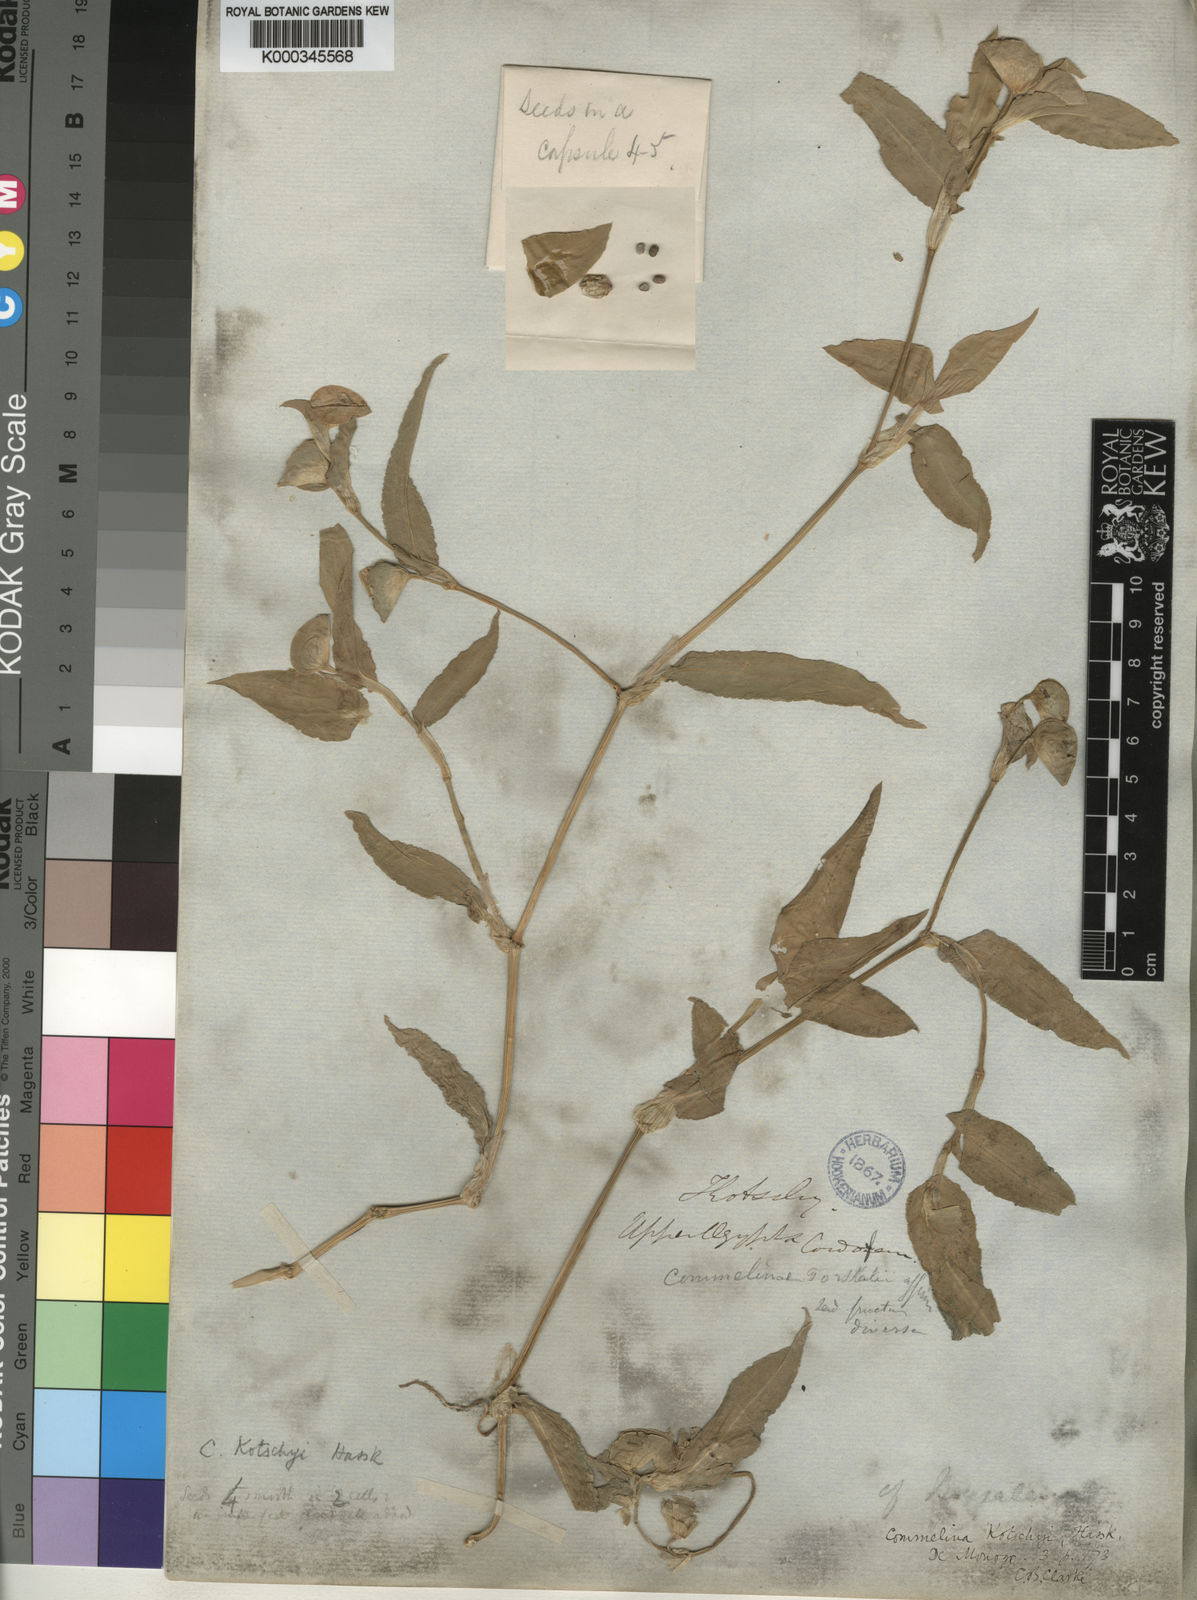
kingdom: Plantae
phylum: Tracheophyta
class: Liliopsida
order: Commelinales
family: Commelinaceae
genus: Commelina
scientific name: Commelina kotschyi
